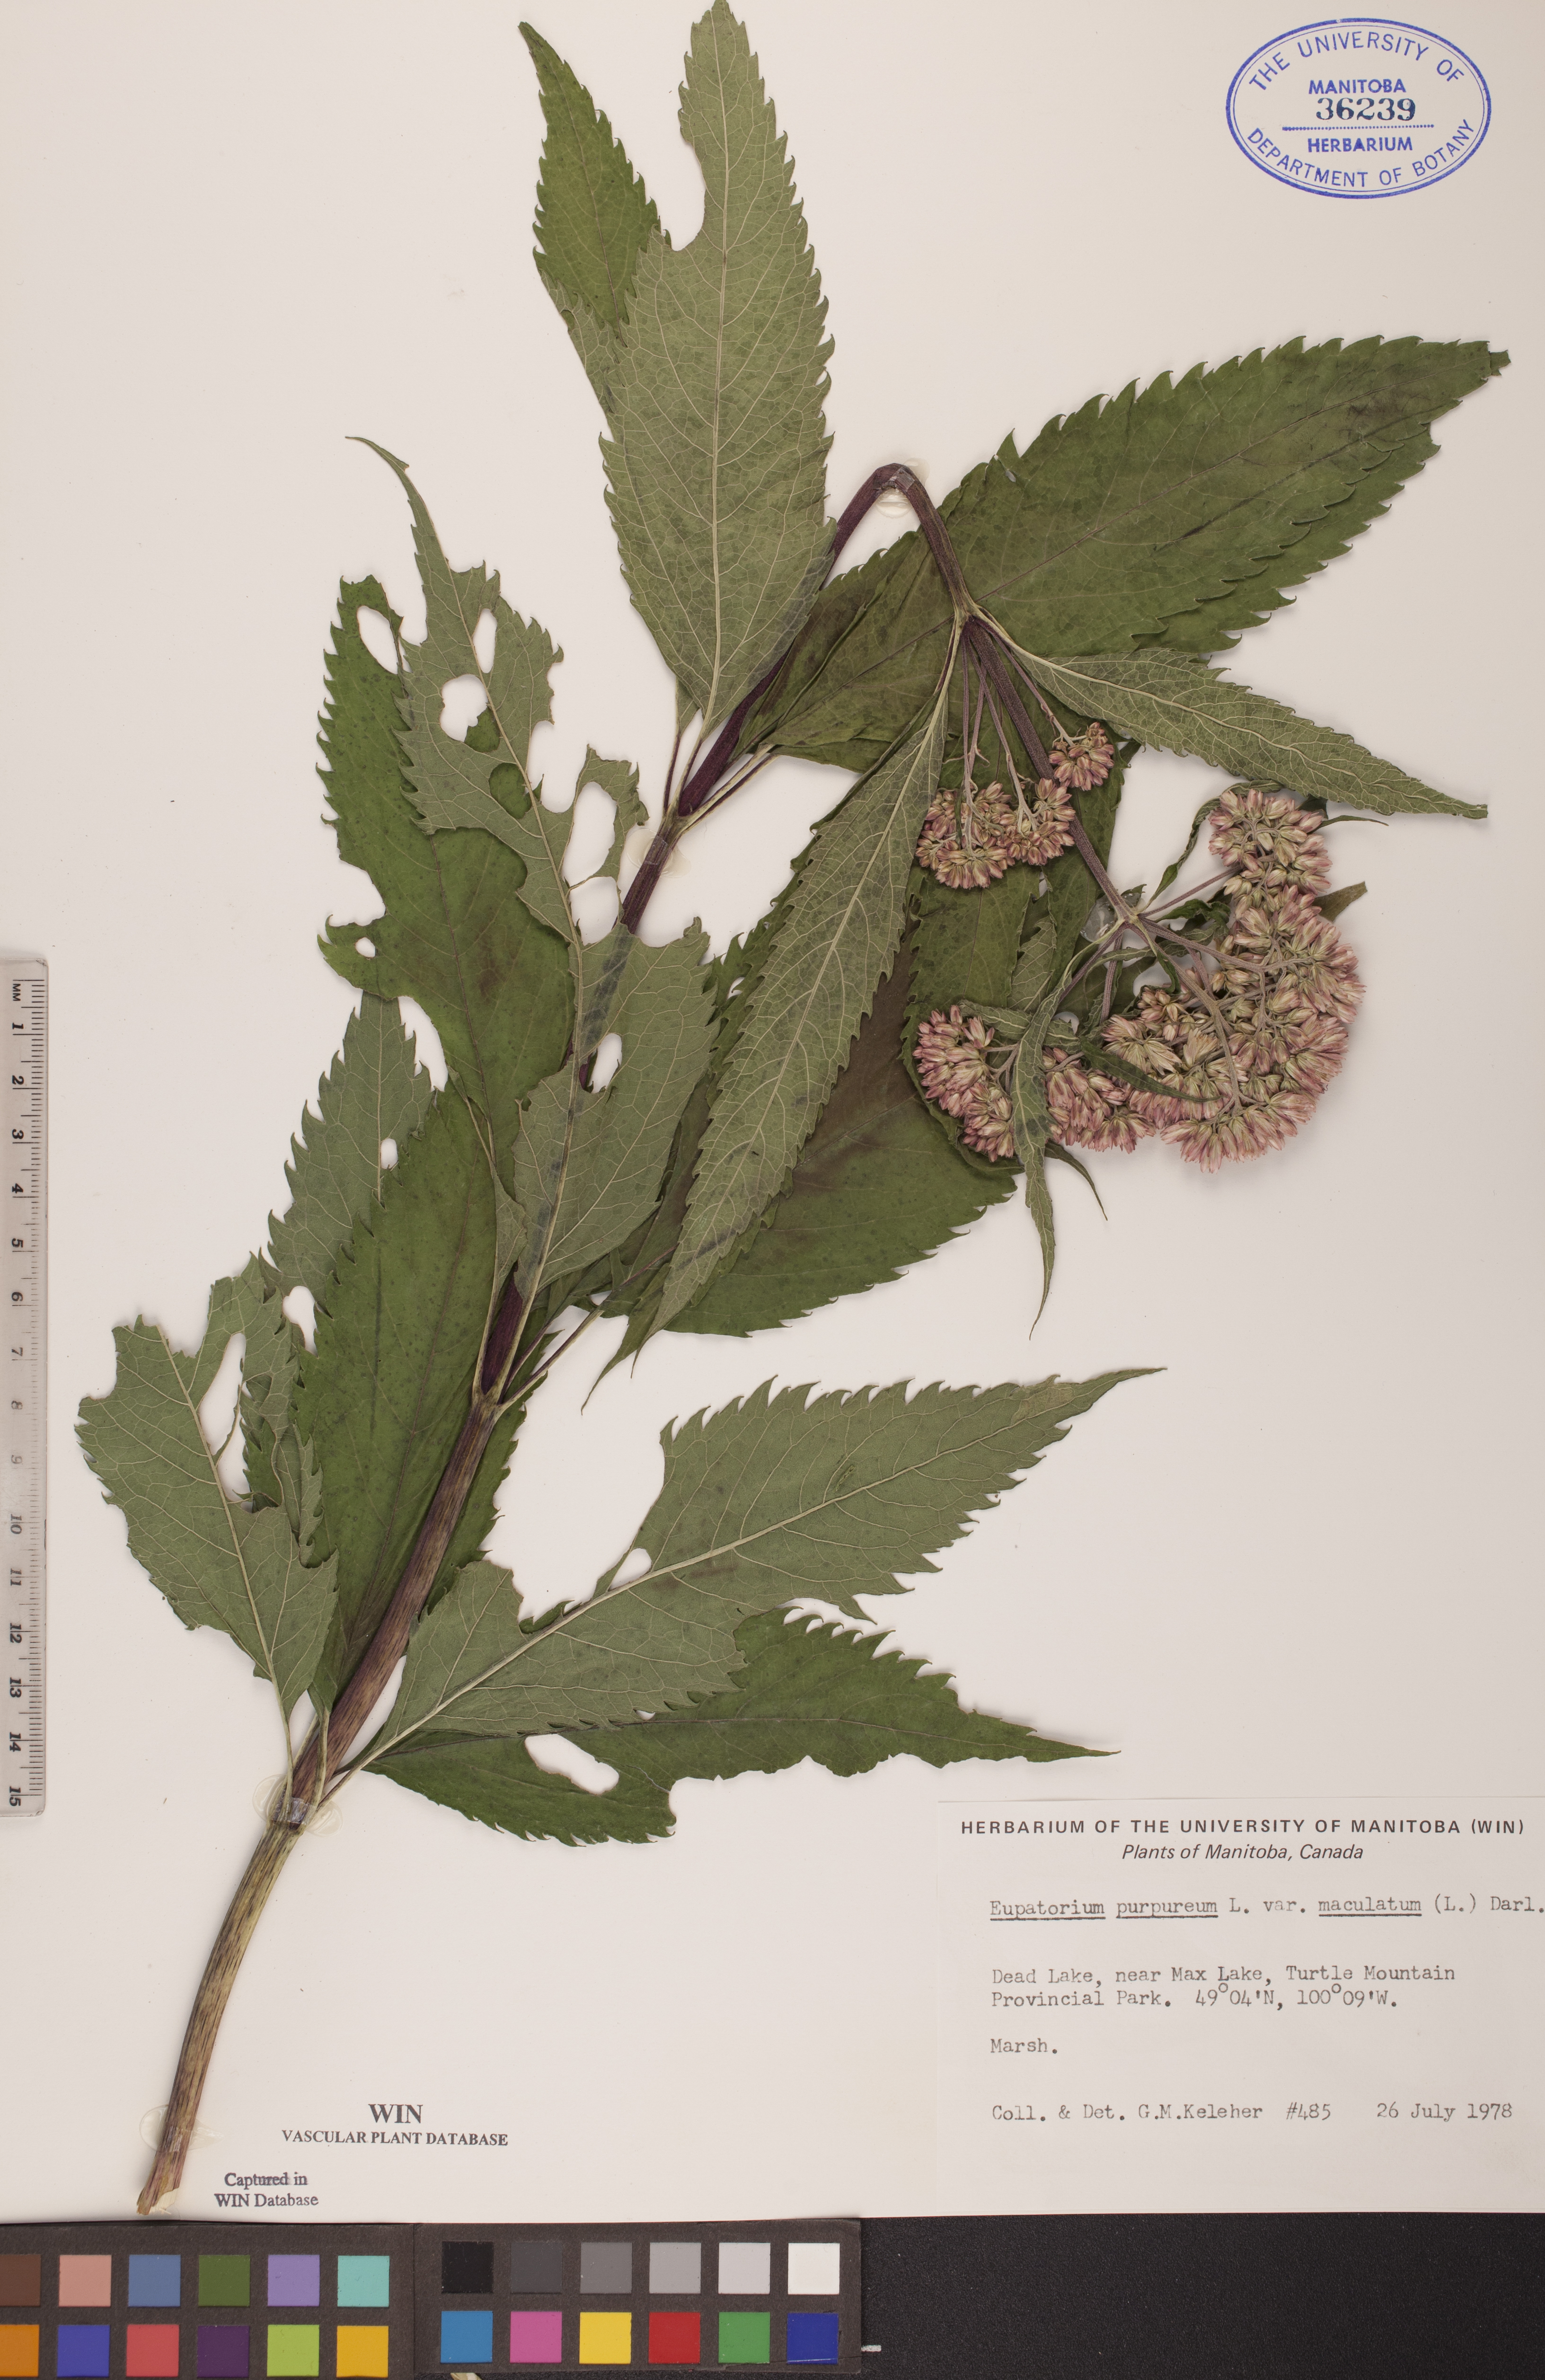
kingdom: Plantae
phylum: Tracheophyta
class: Magnoliopsida
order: Asterales
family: Asteraceae
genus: Eutrochium
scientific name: Eutrochium maculatum
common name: Spotted joe pye weed
